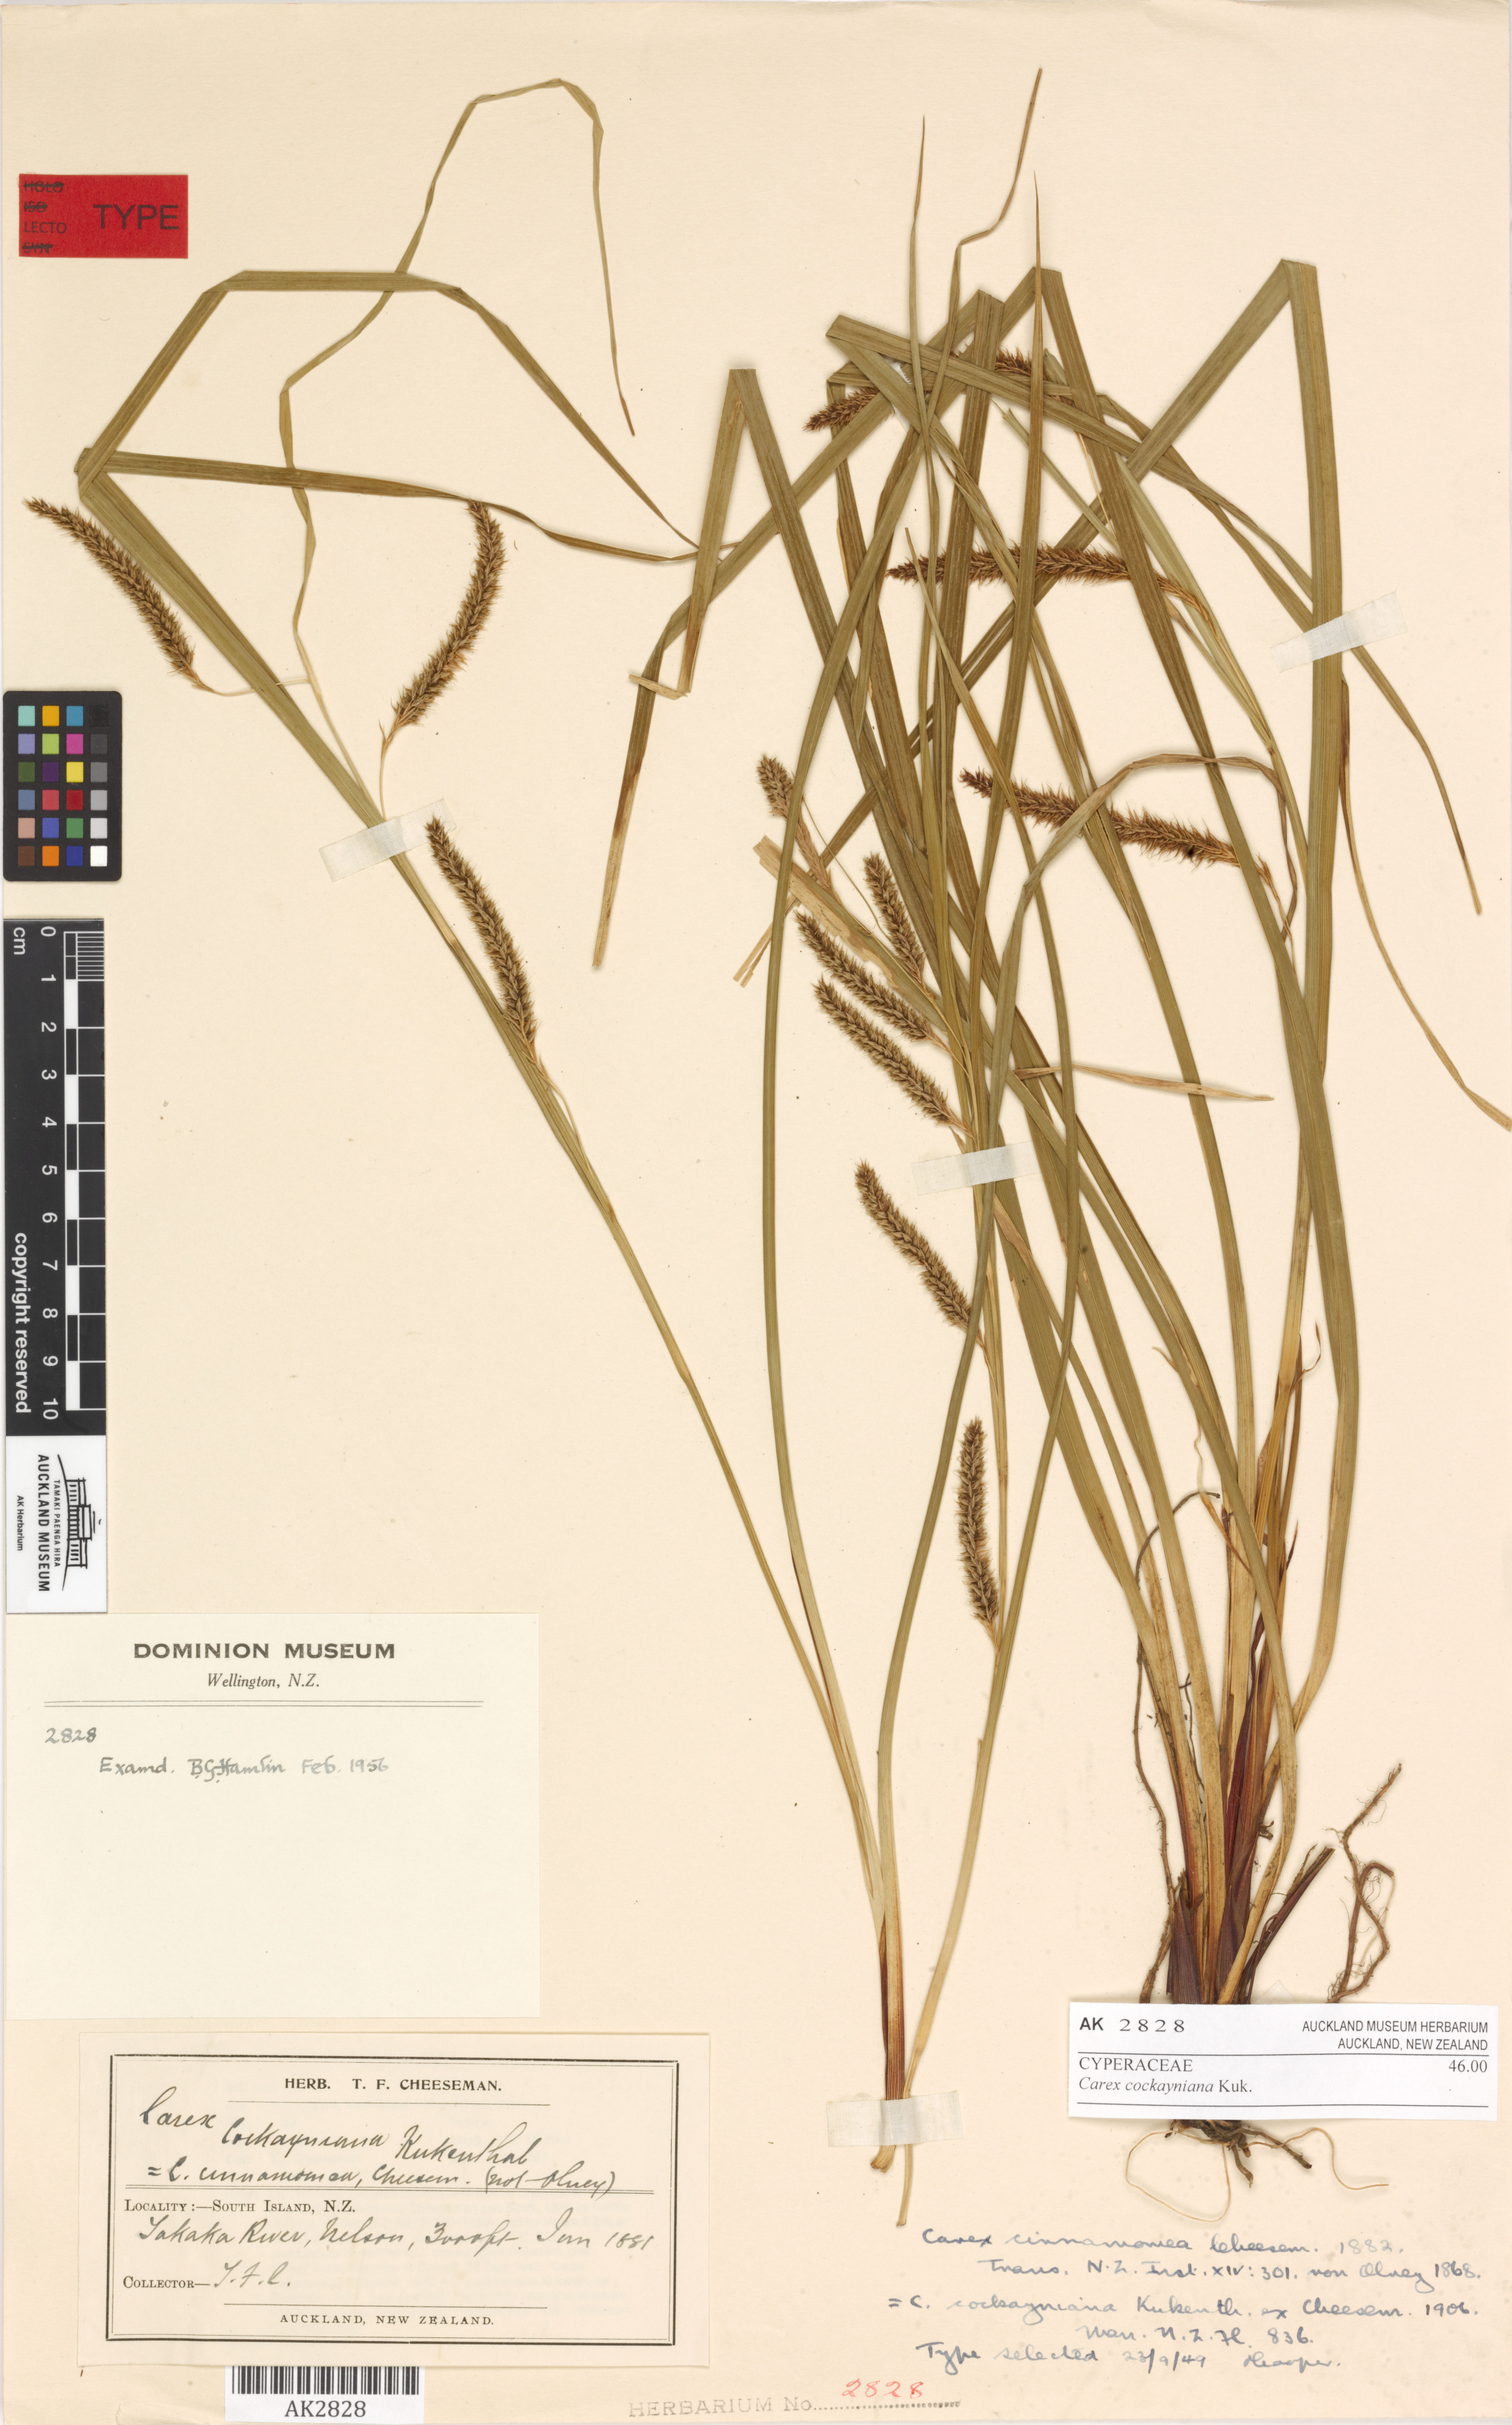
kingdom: Plantae
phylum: Tracheophyta
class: Liliopsida
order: Poales
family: Cyperaceae
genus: Carex
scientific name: Carex cockayneana
